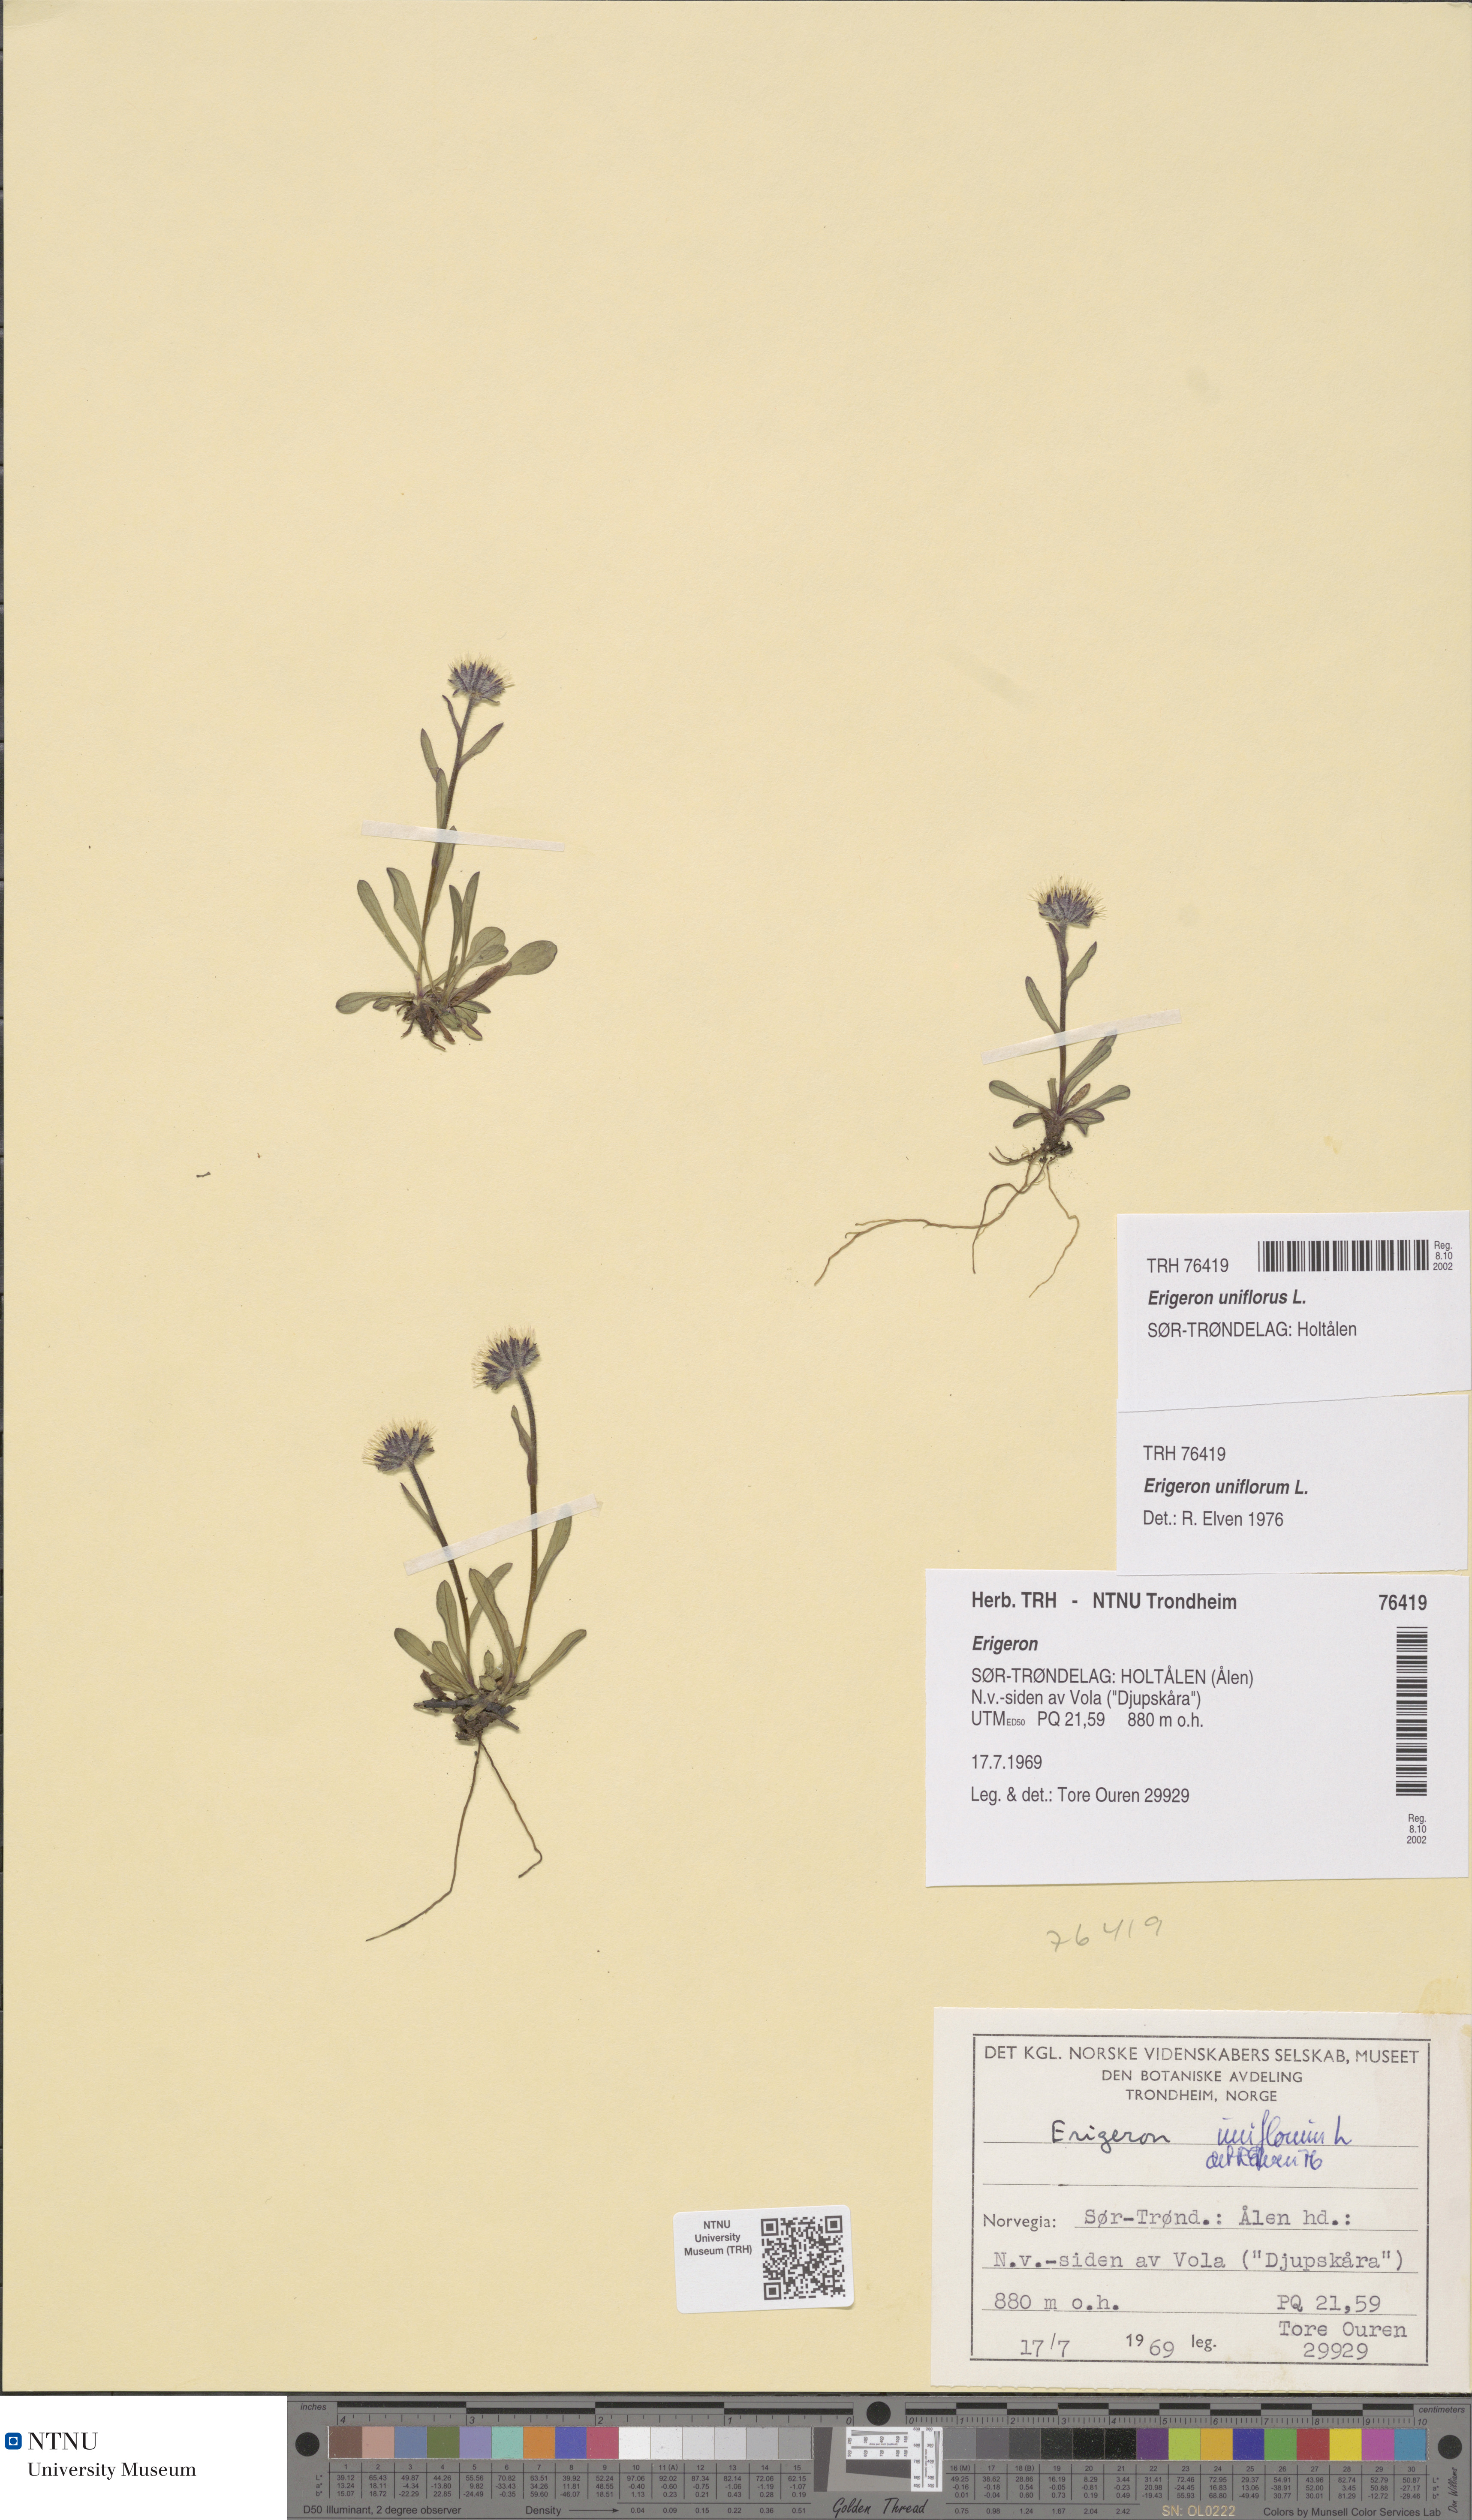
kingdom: Plantae
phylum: Tracheophyta
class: Magnoliopsida
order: Asterales
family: Asteraceae
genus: Erigeron
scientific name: Erigeron uniflorus
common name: Northern daisy
